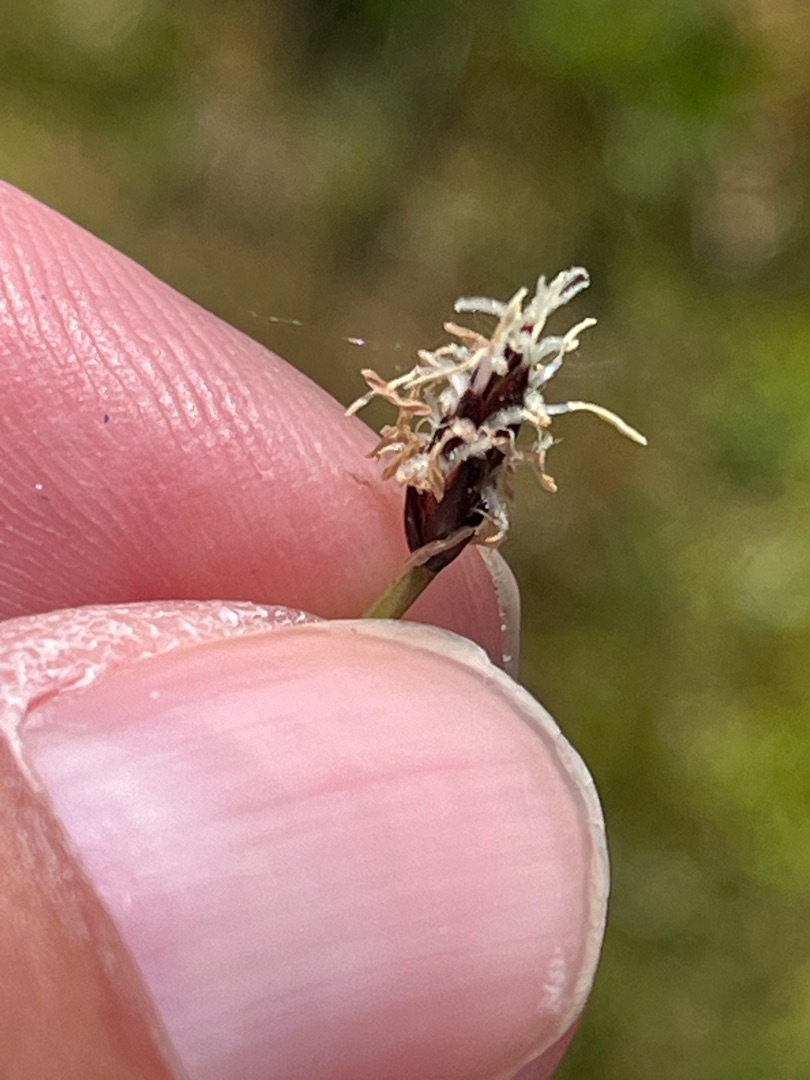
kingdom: Plantae
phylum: Tracheophyta
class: Liliopsida
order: Poales
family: Cyperaceae
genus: Eleocharis
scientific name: Eleocharis uniglumis
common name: Enskællet sumpstrå
